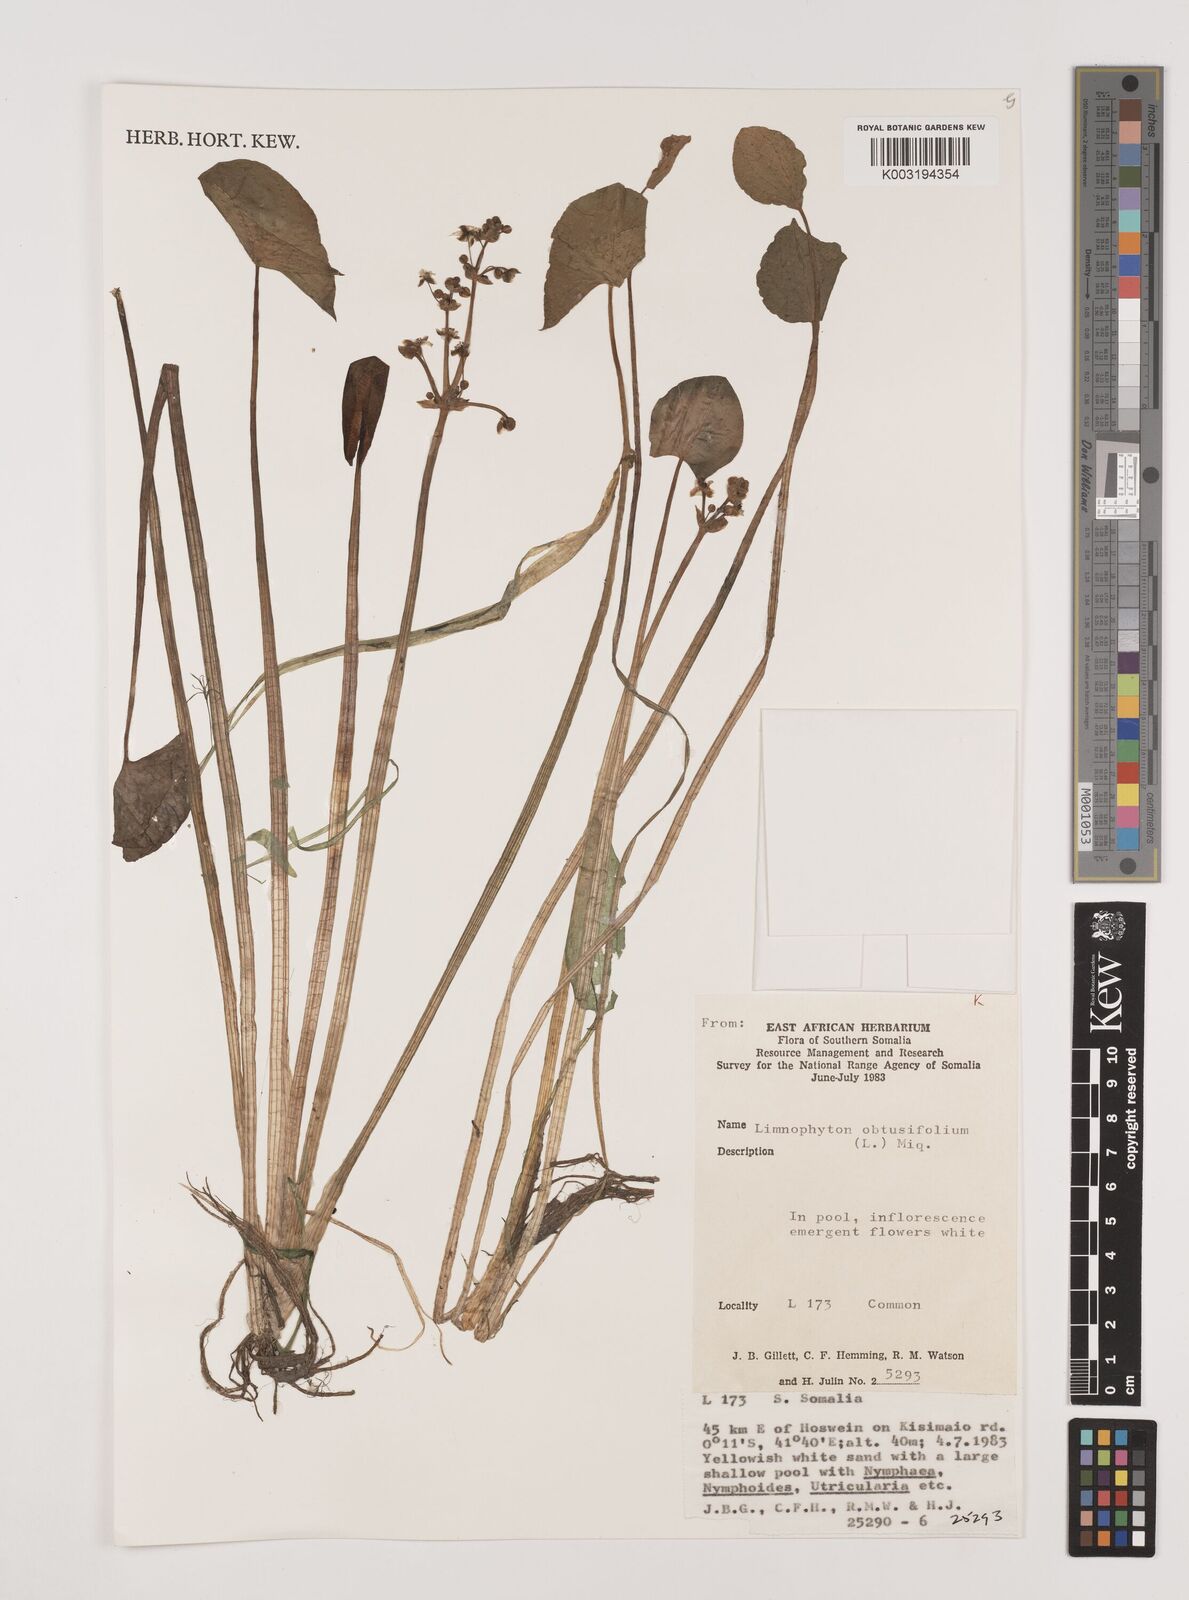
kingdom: Plantae
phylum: Tracheophyta
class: Liliopsida
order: Alismatales
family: Alismataceae
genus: Limnophyton
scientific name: Limnophyton obtusifolium
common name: Arrow head
